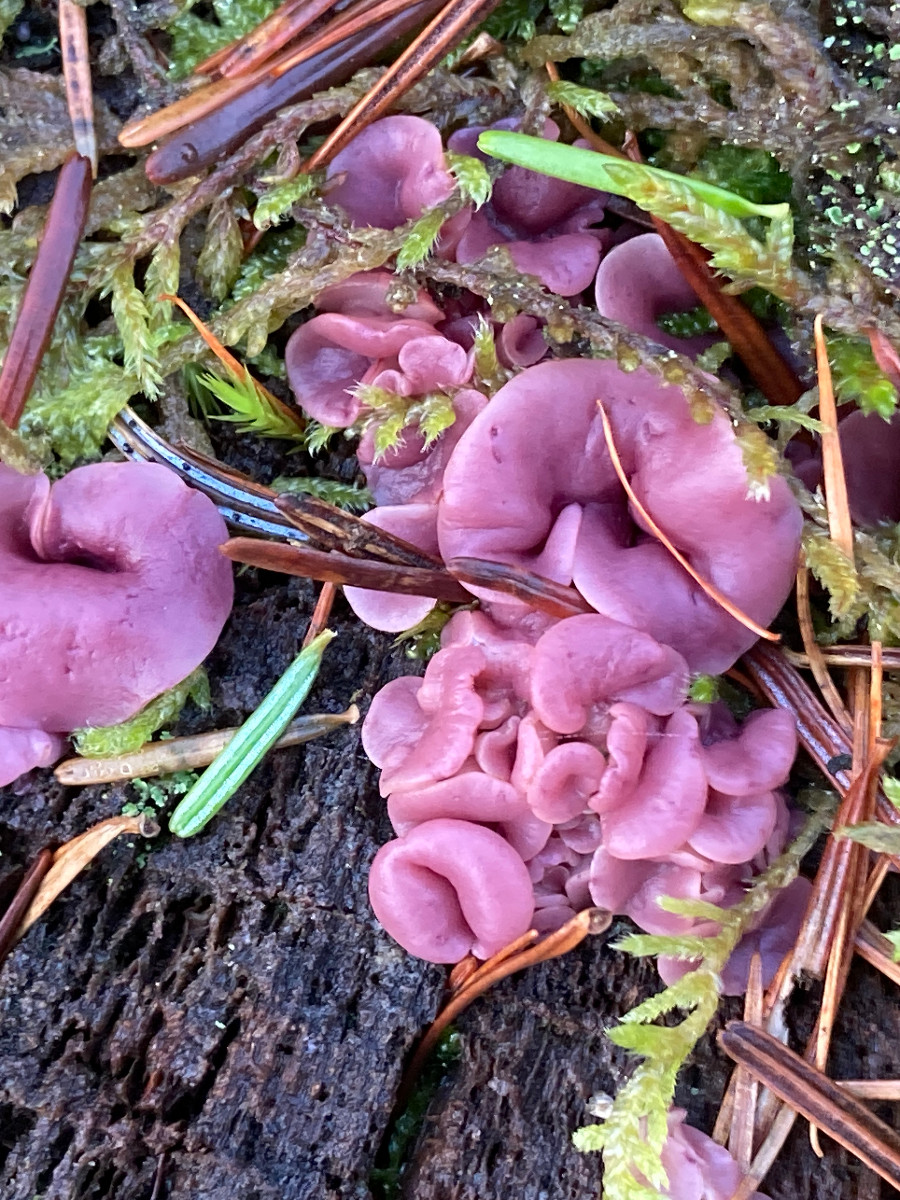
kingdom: Fungi
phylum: Ascomycota
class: Leotiomycetes
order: Helotiales
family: Gelatinodiscaceae
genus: Ascocoryne
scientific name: Ascocoryne
